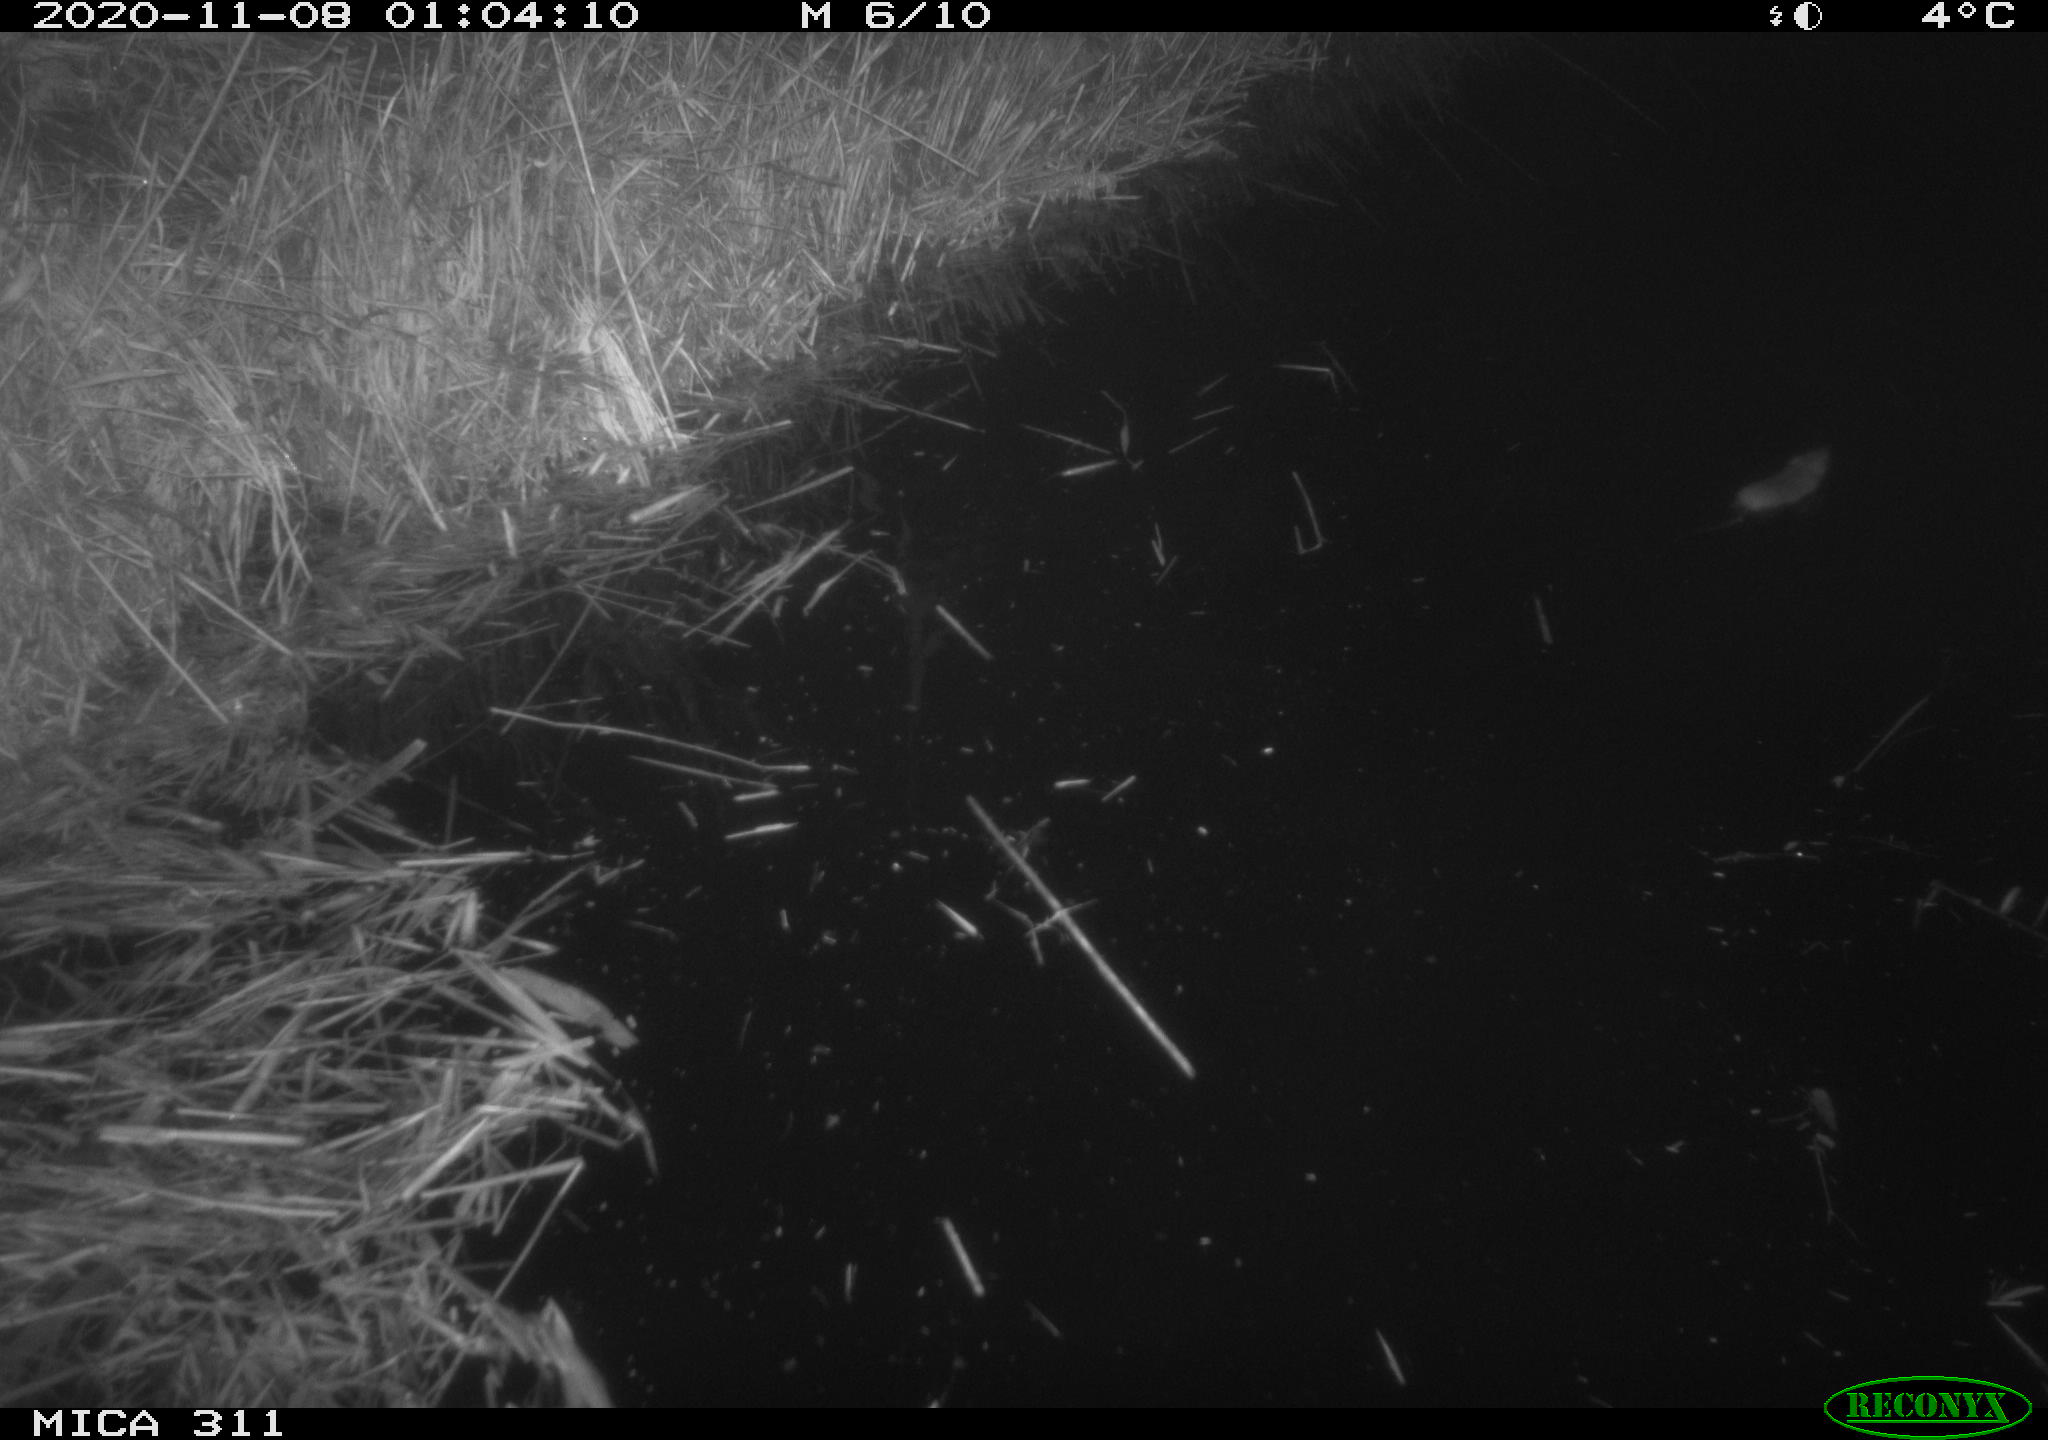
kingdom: Animalia
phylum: Chordata
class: Mammalia
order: Rodentia
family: Muridae
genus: Rattus
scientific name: Rattus norvegicus
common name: Brown rat
